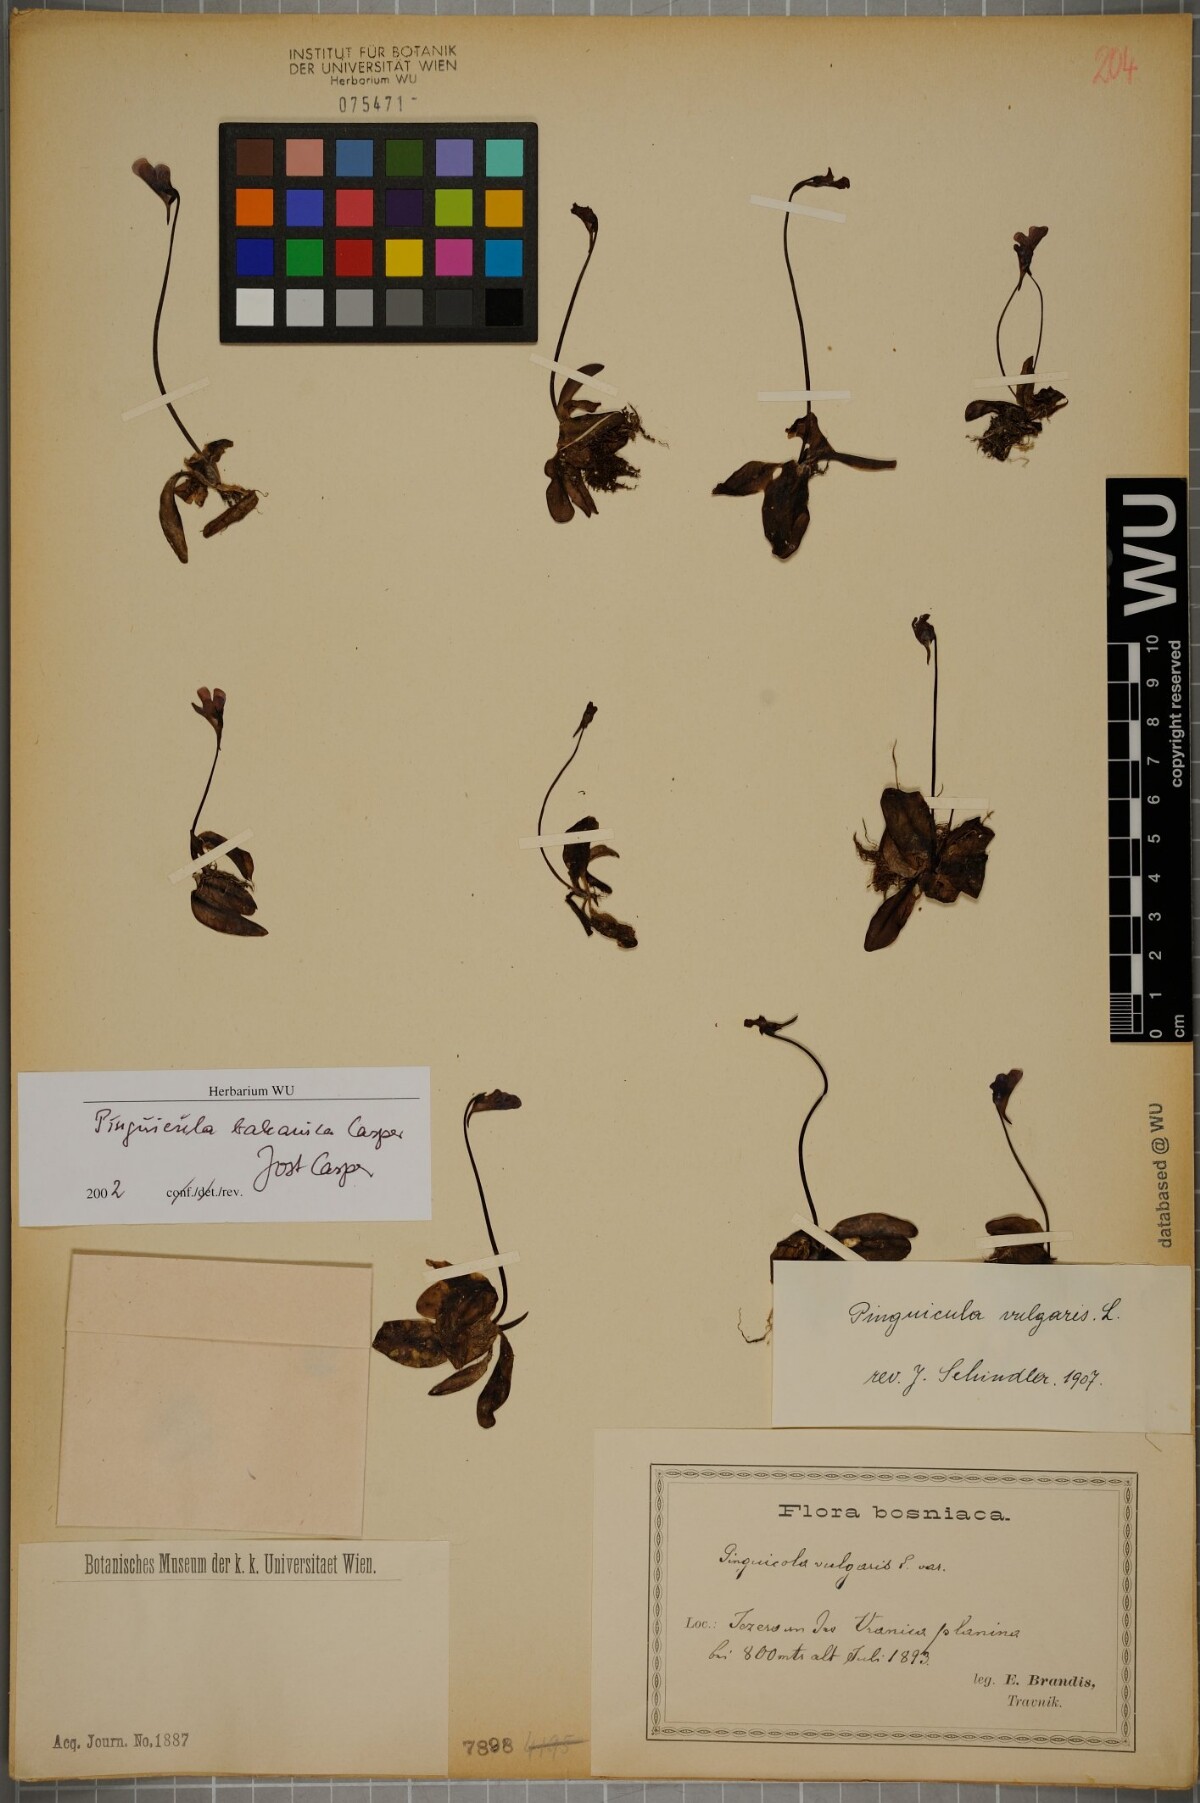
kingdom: Plantae
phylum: Tracheophyta
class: Magnoliopsida
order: Lamiales
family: Lentibulariaceae
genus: Pinguicula
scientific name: Pinguicula balcanica
